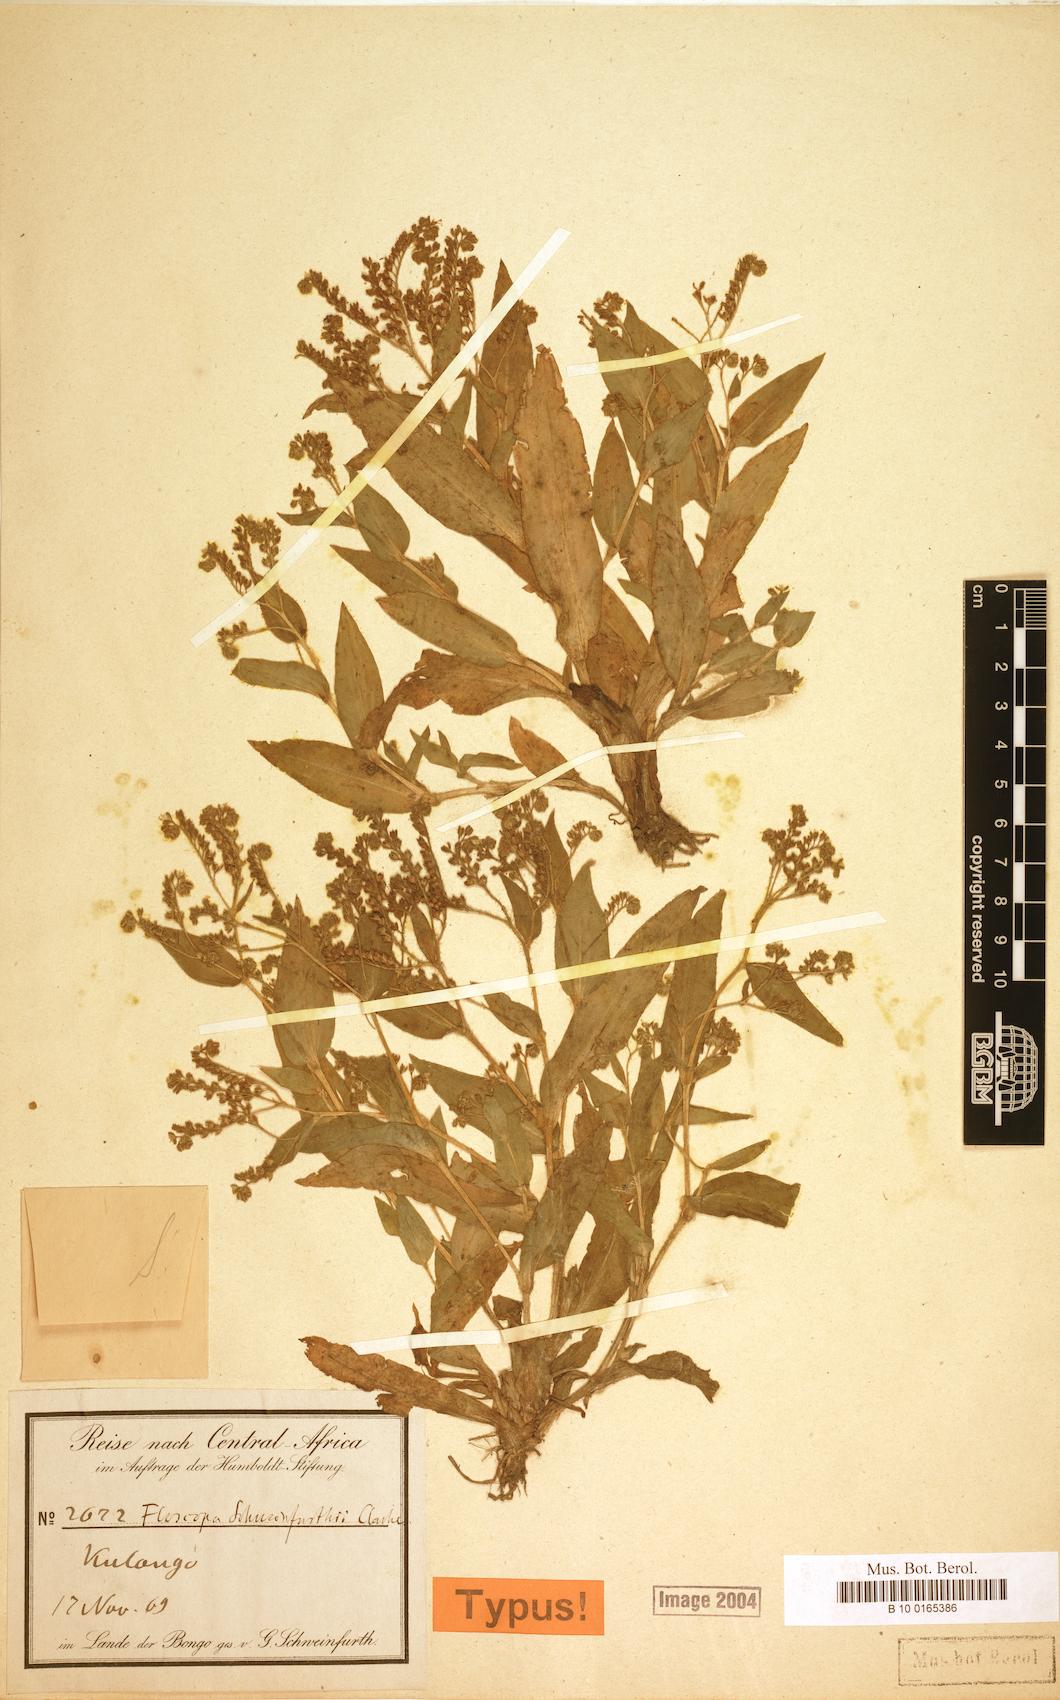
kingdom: Plantae
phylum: Tracheophyta
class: Liliopsida
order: Commelinales
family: Commelinaceae
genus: Floscopa
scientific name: Floscopa schweinfurthii
